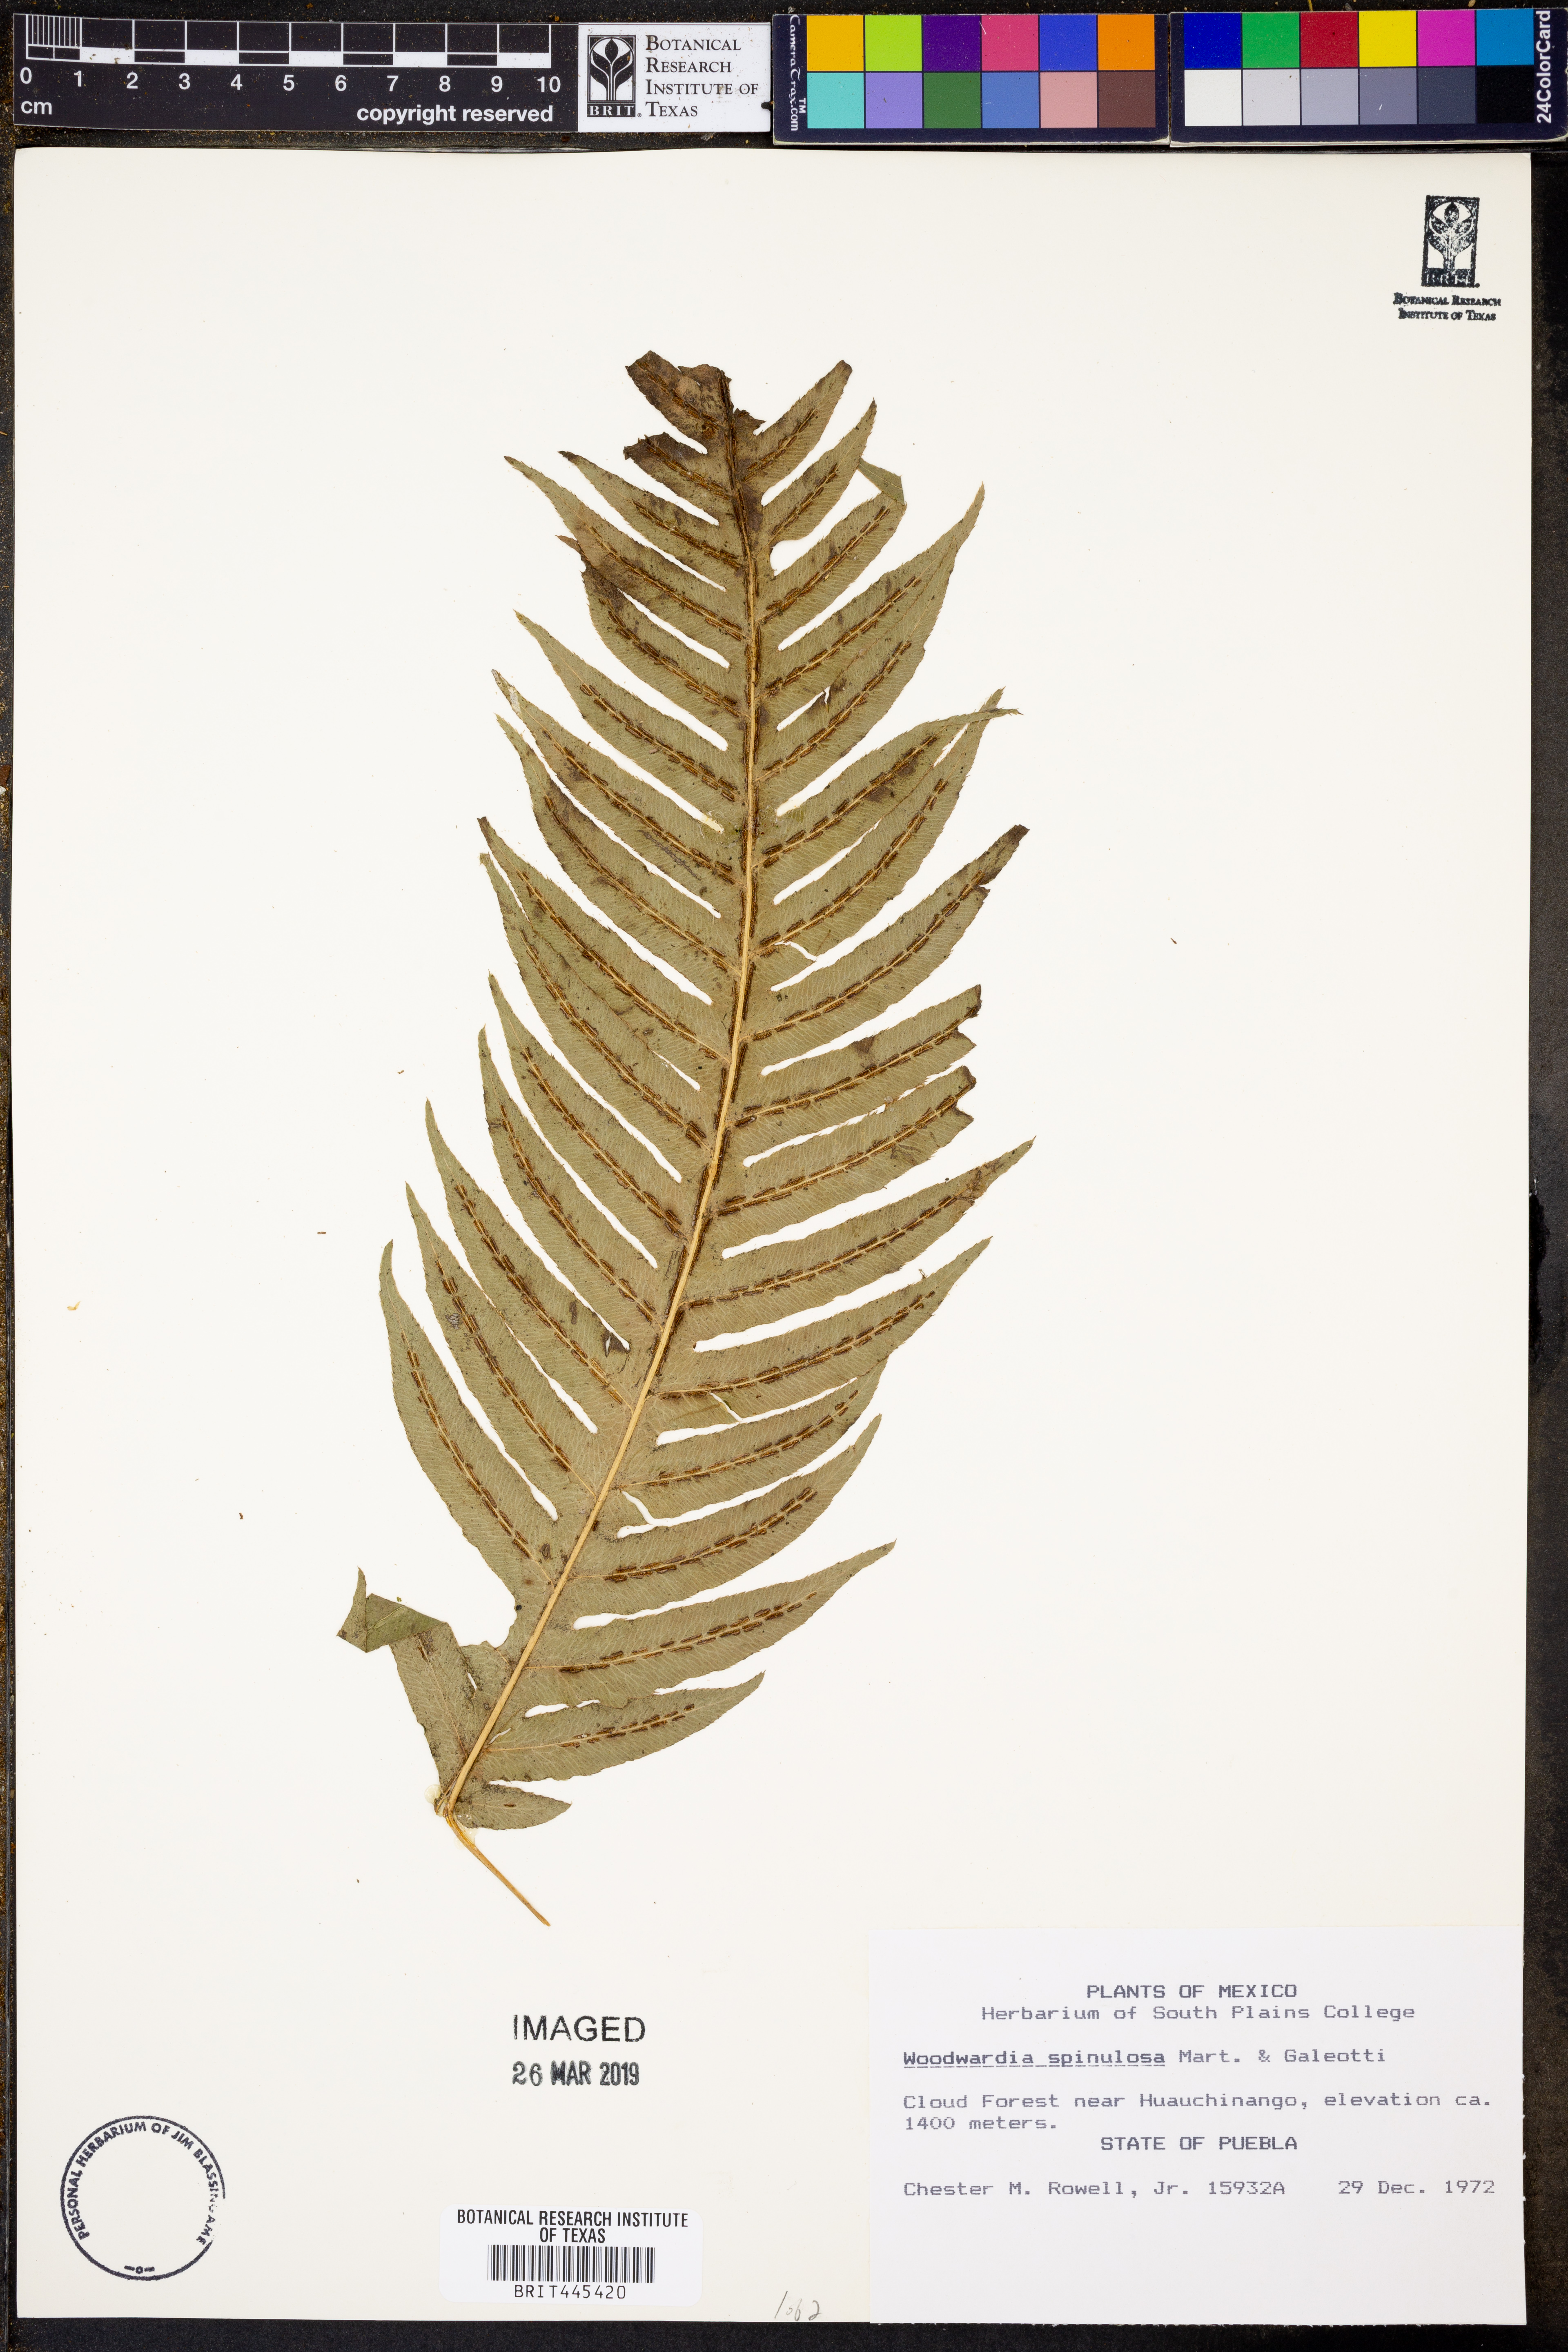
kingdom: Plantae
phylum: Tracheophyta
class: Polypodiopsida
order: Polypodiales
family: Blechnaceae
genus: Woodwardia
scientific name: Woodwardia spinulosa
